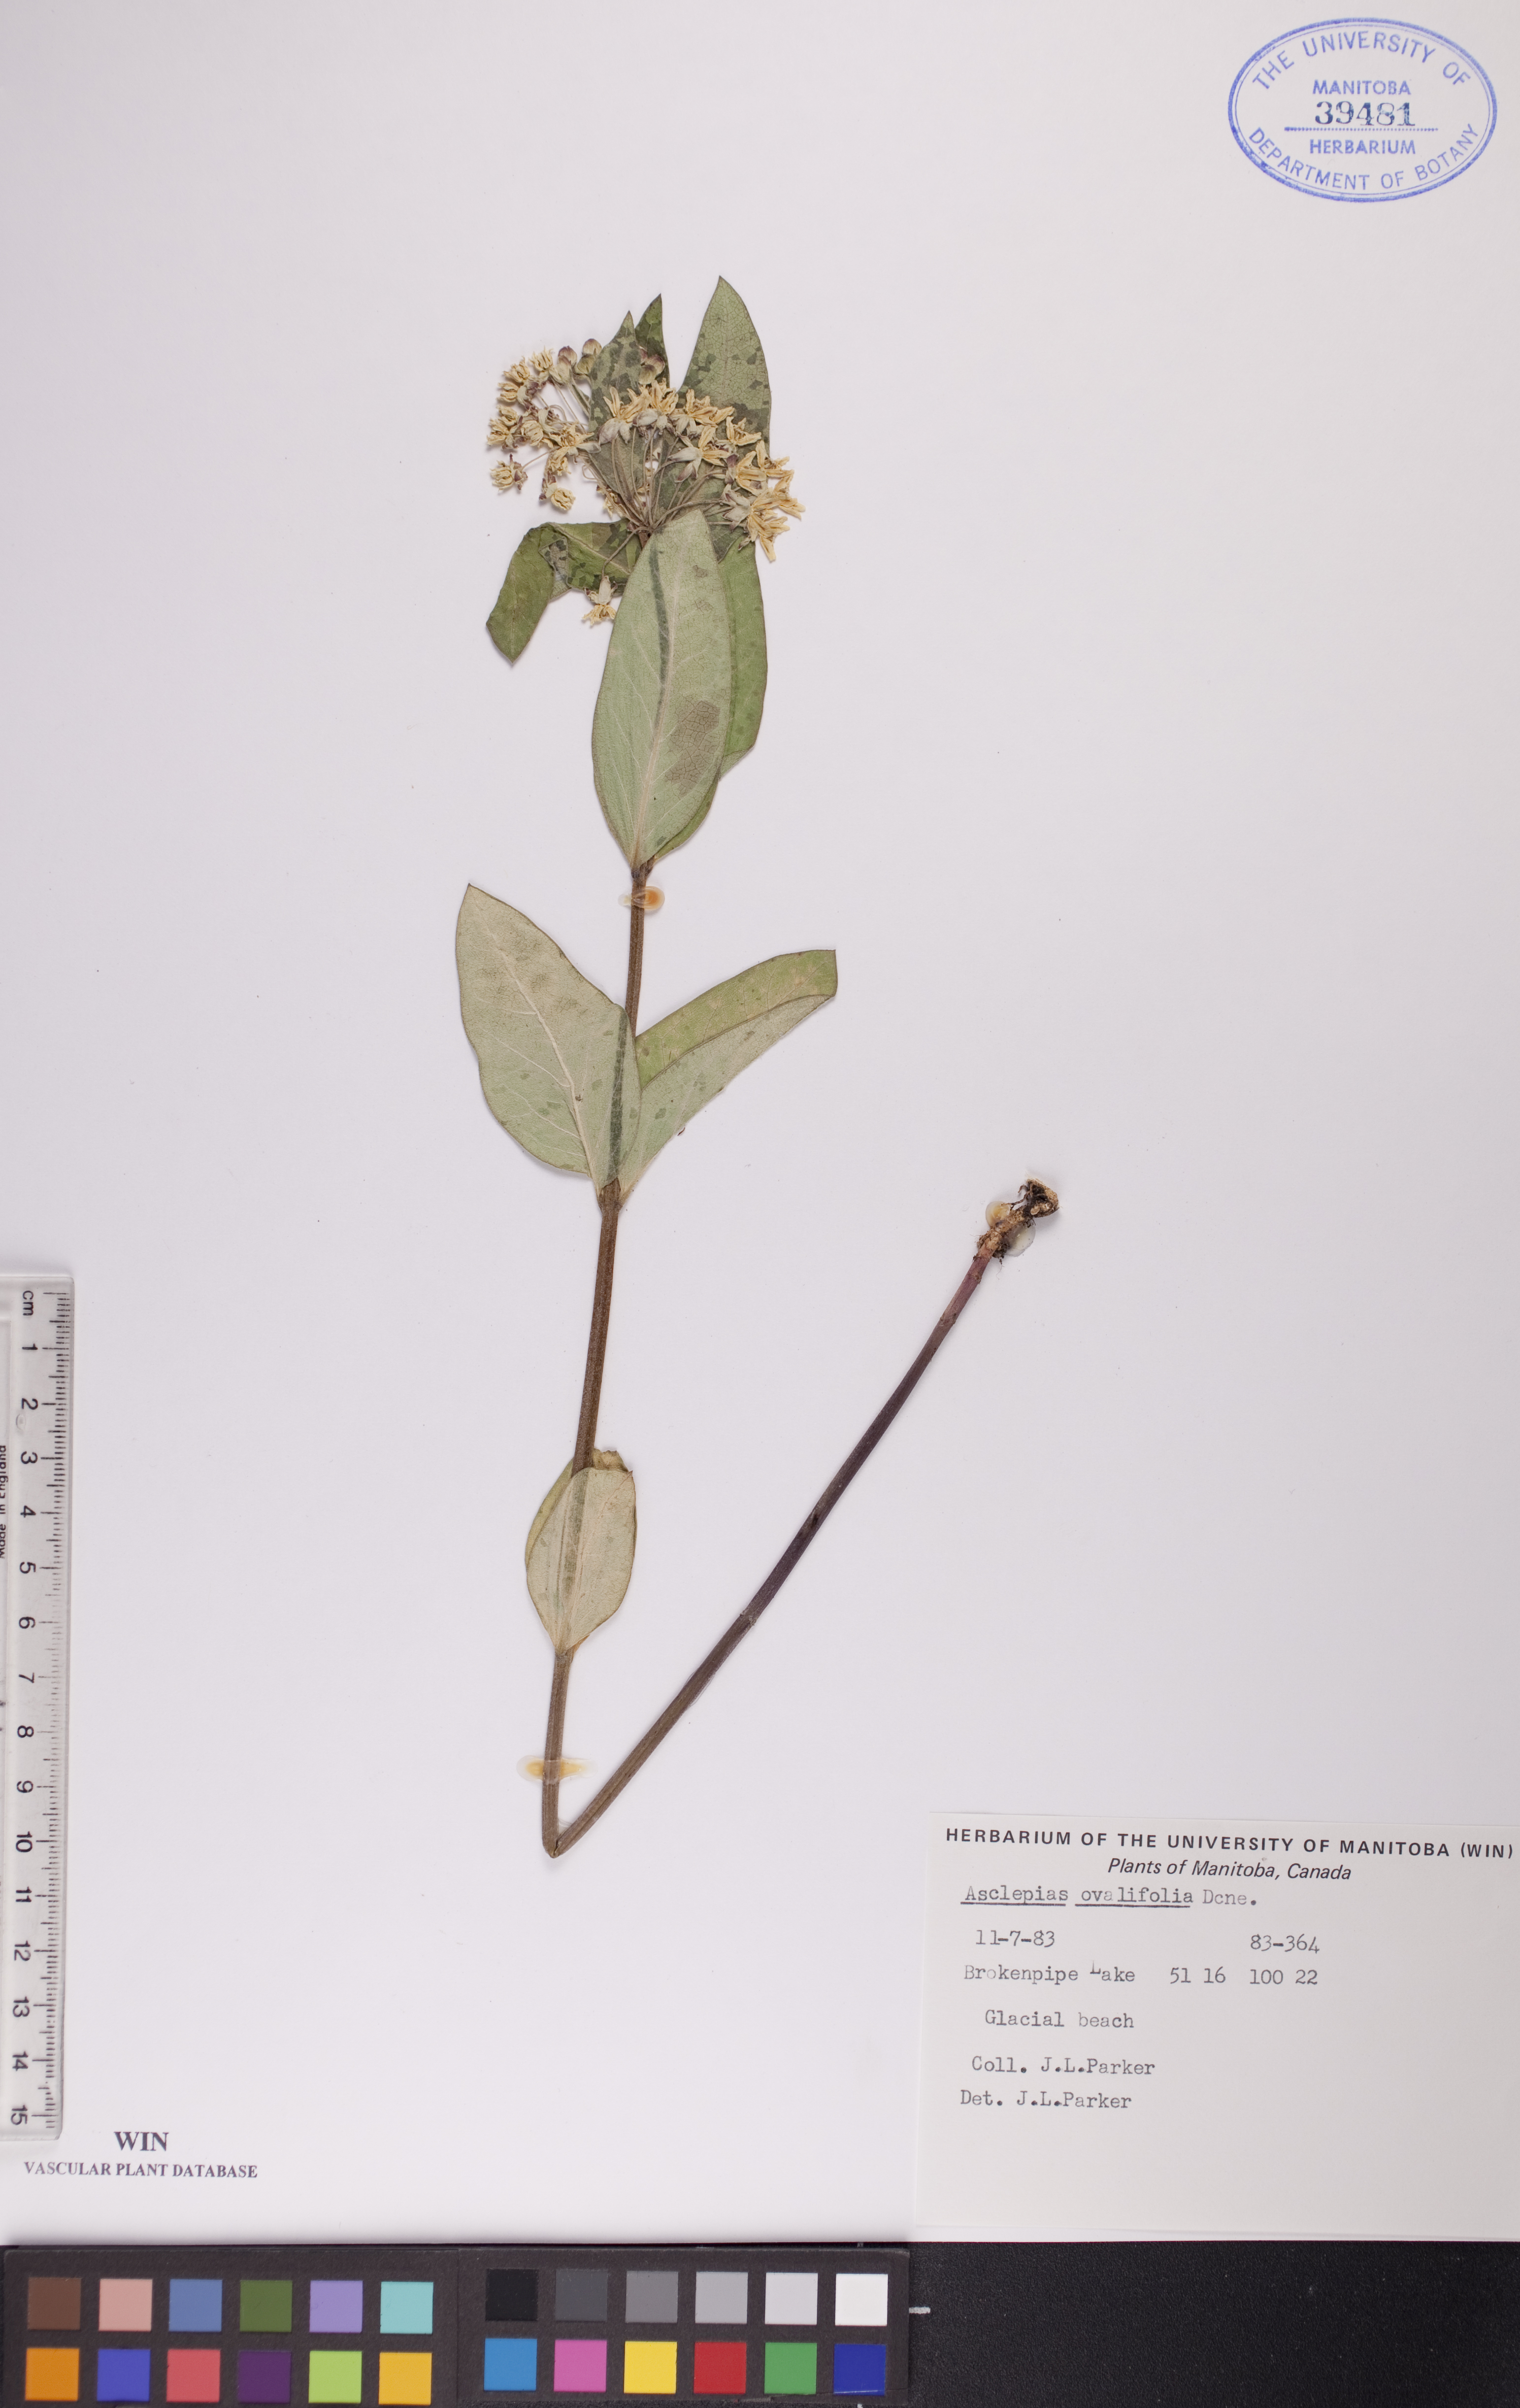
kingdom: Plantae
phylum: Tracheophyta
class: Magnoliopsida
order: Gentianales
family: Apocynaceae
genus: Asclepias
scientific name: Asclepias ovalifolia
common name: Dwarf milkweed
